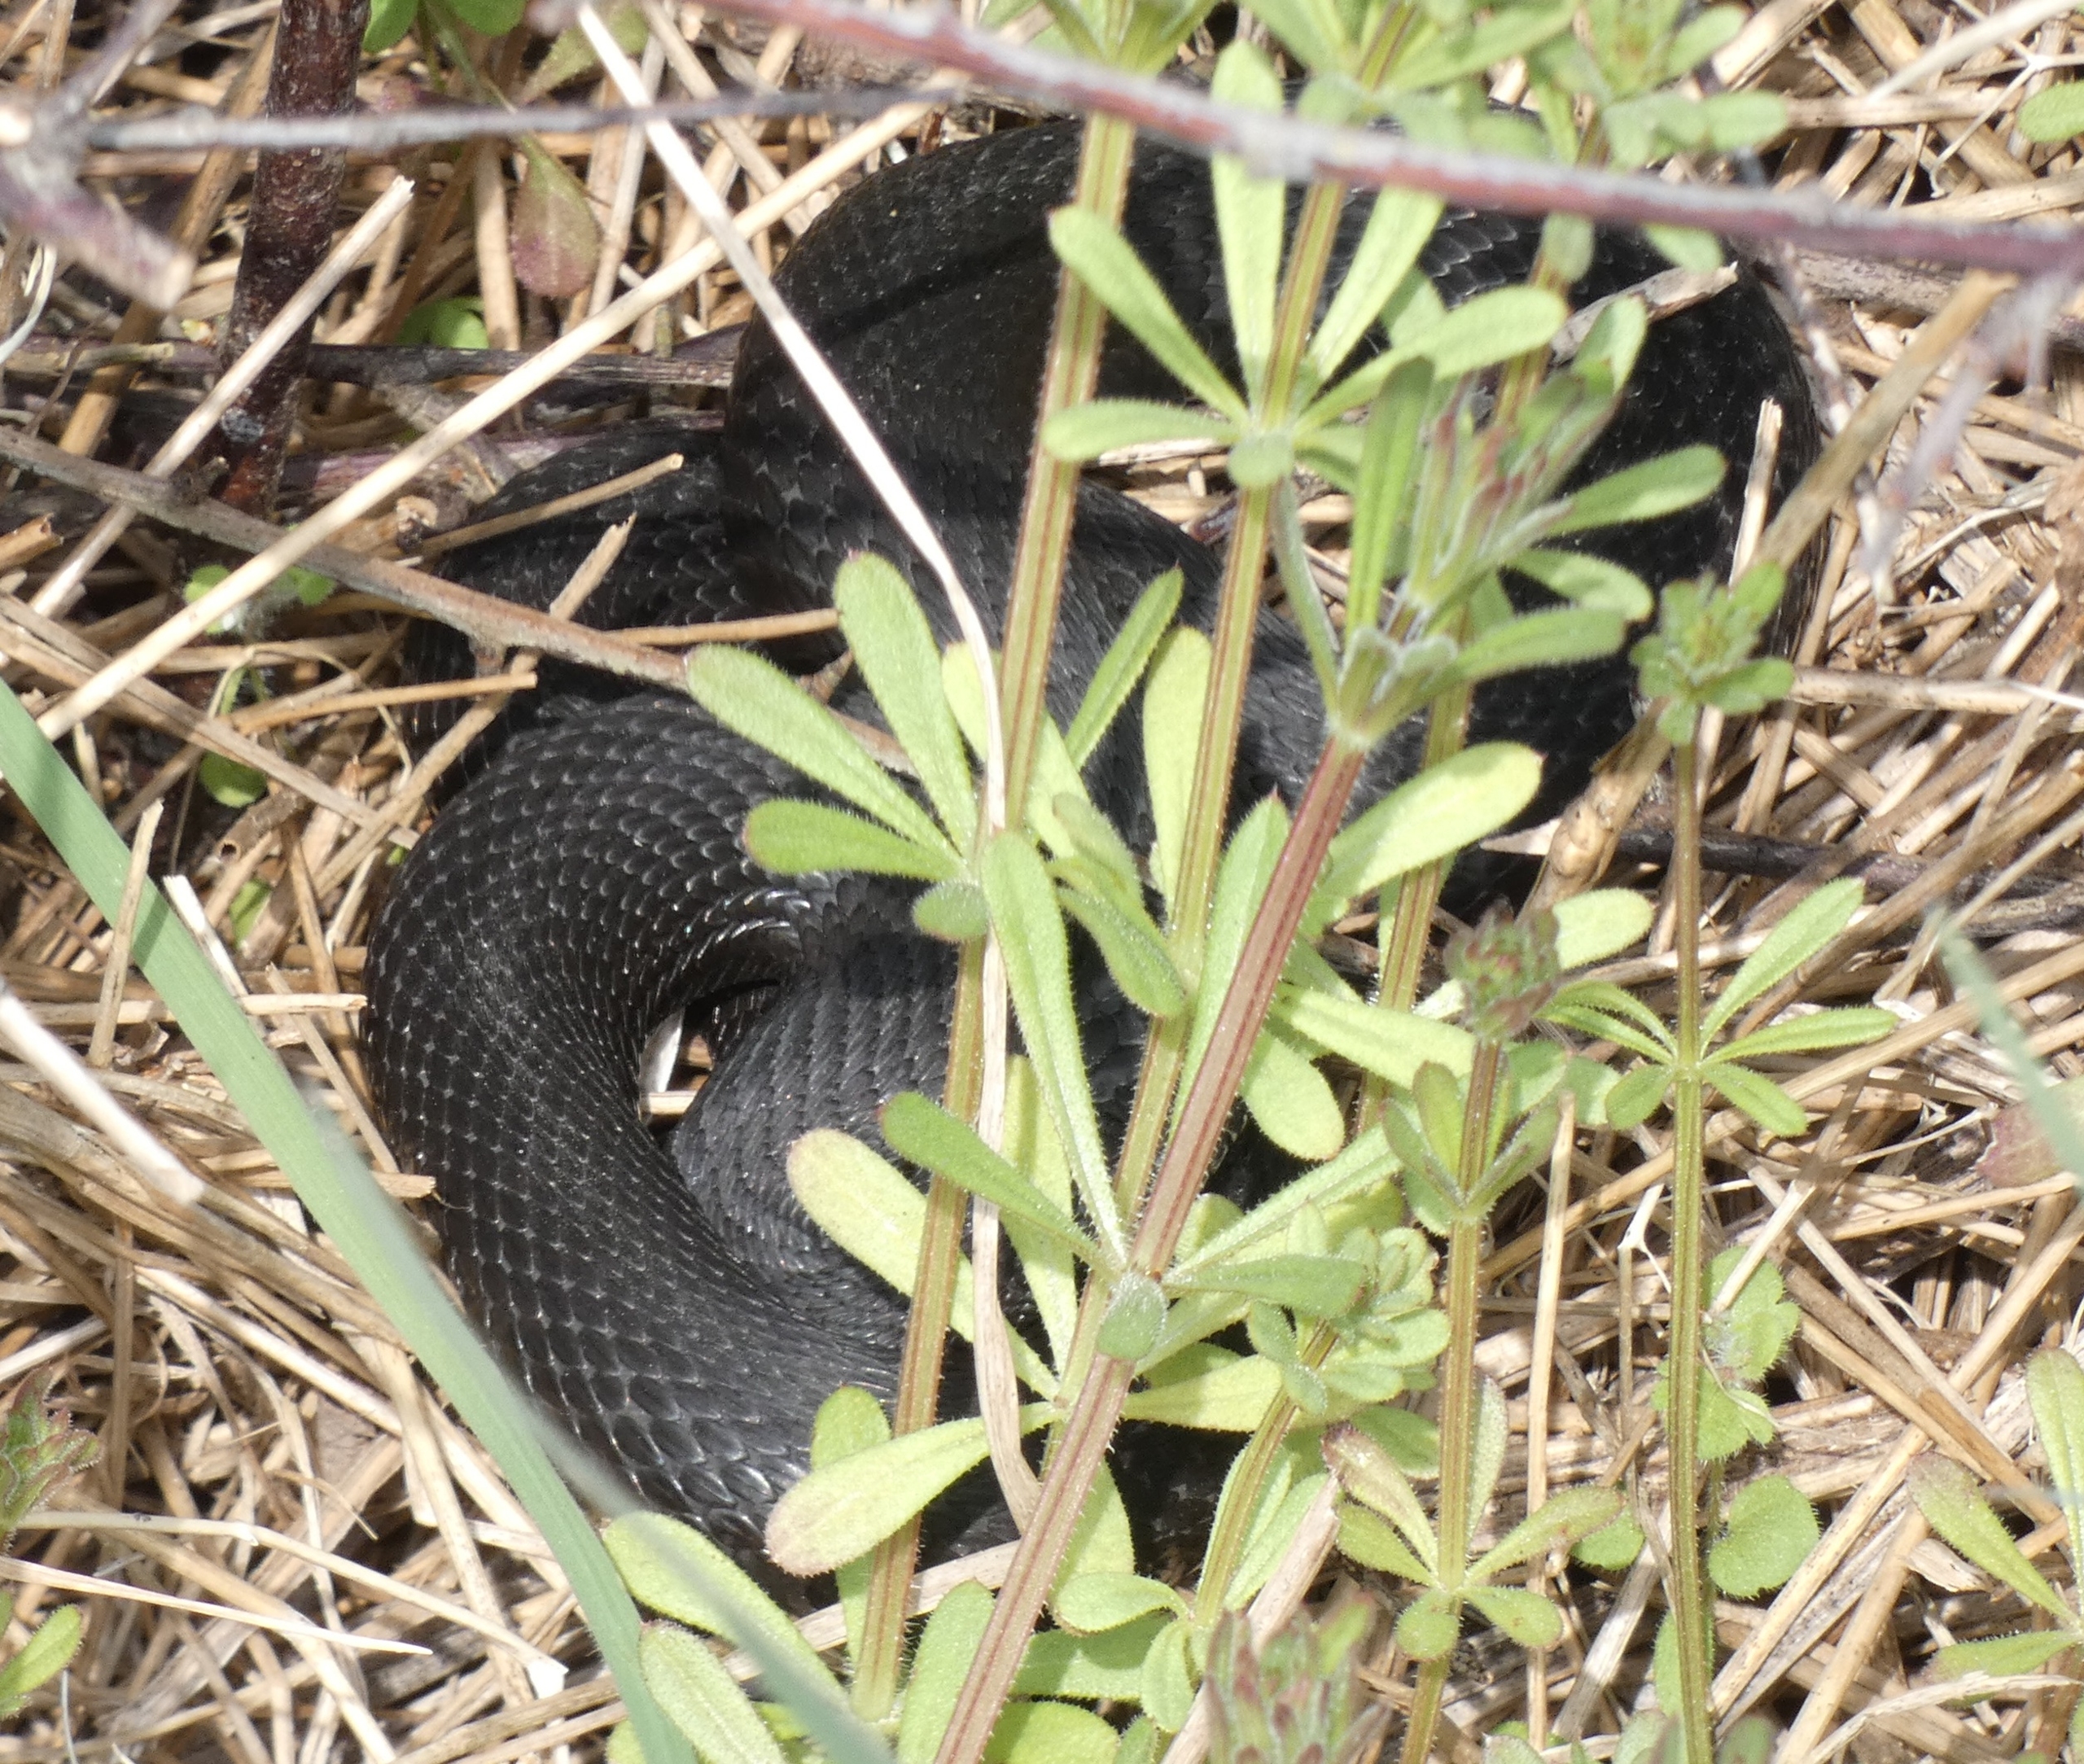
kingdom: Animalia
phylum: Chordata
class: Squamata
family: Viperidae
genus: Vipera
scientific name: Vipera berus
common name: Hugorm
